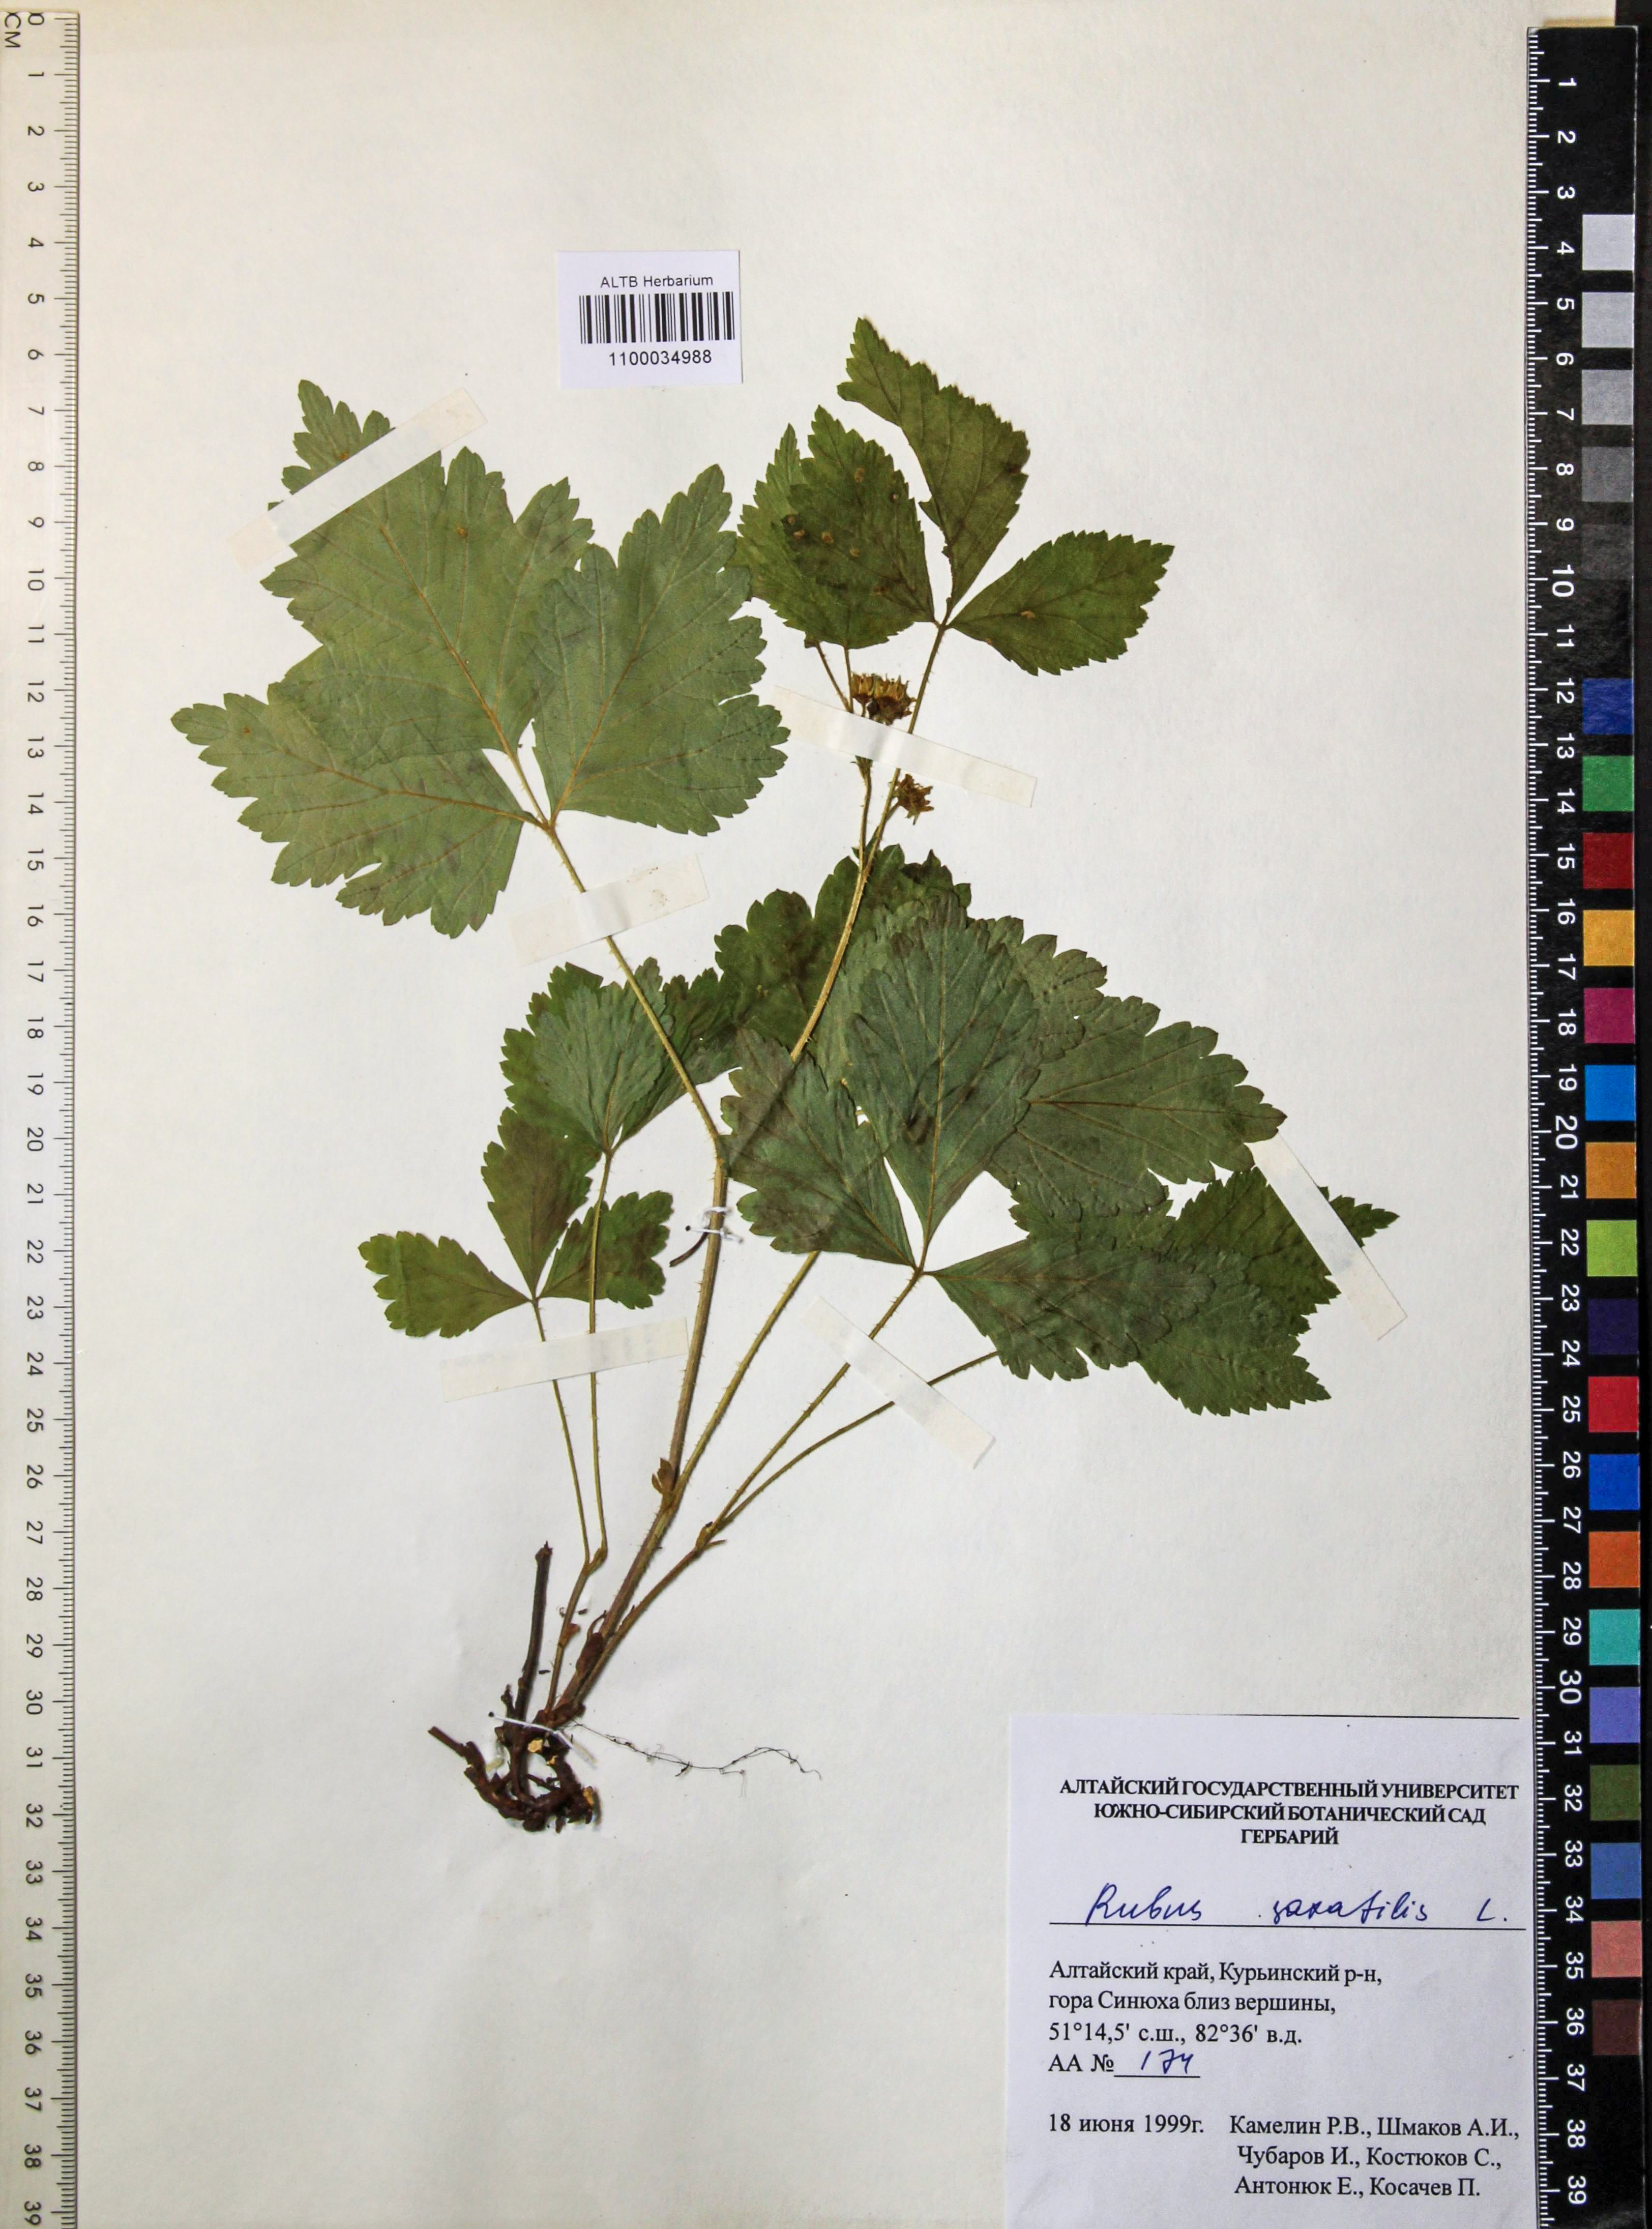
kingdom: Plantae
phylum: Tracheophyta
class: Magnoliopsida
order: Rosales
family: Rosaceae
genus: Rubus
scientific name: Rubus saxatilis
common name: Stone bramble
